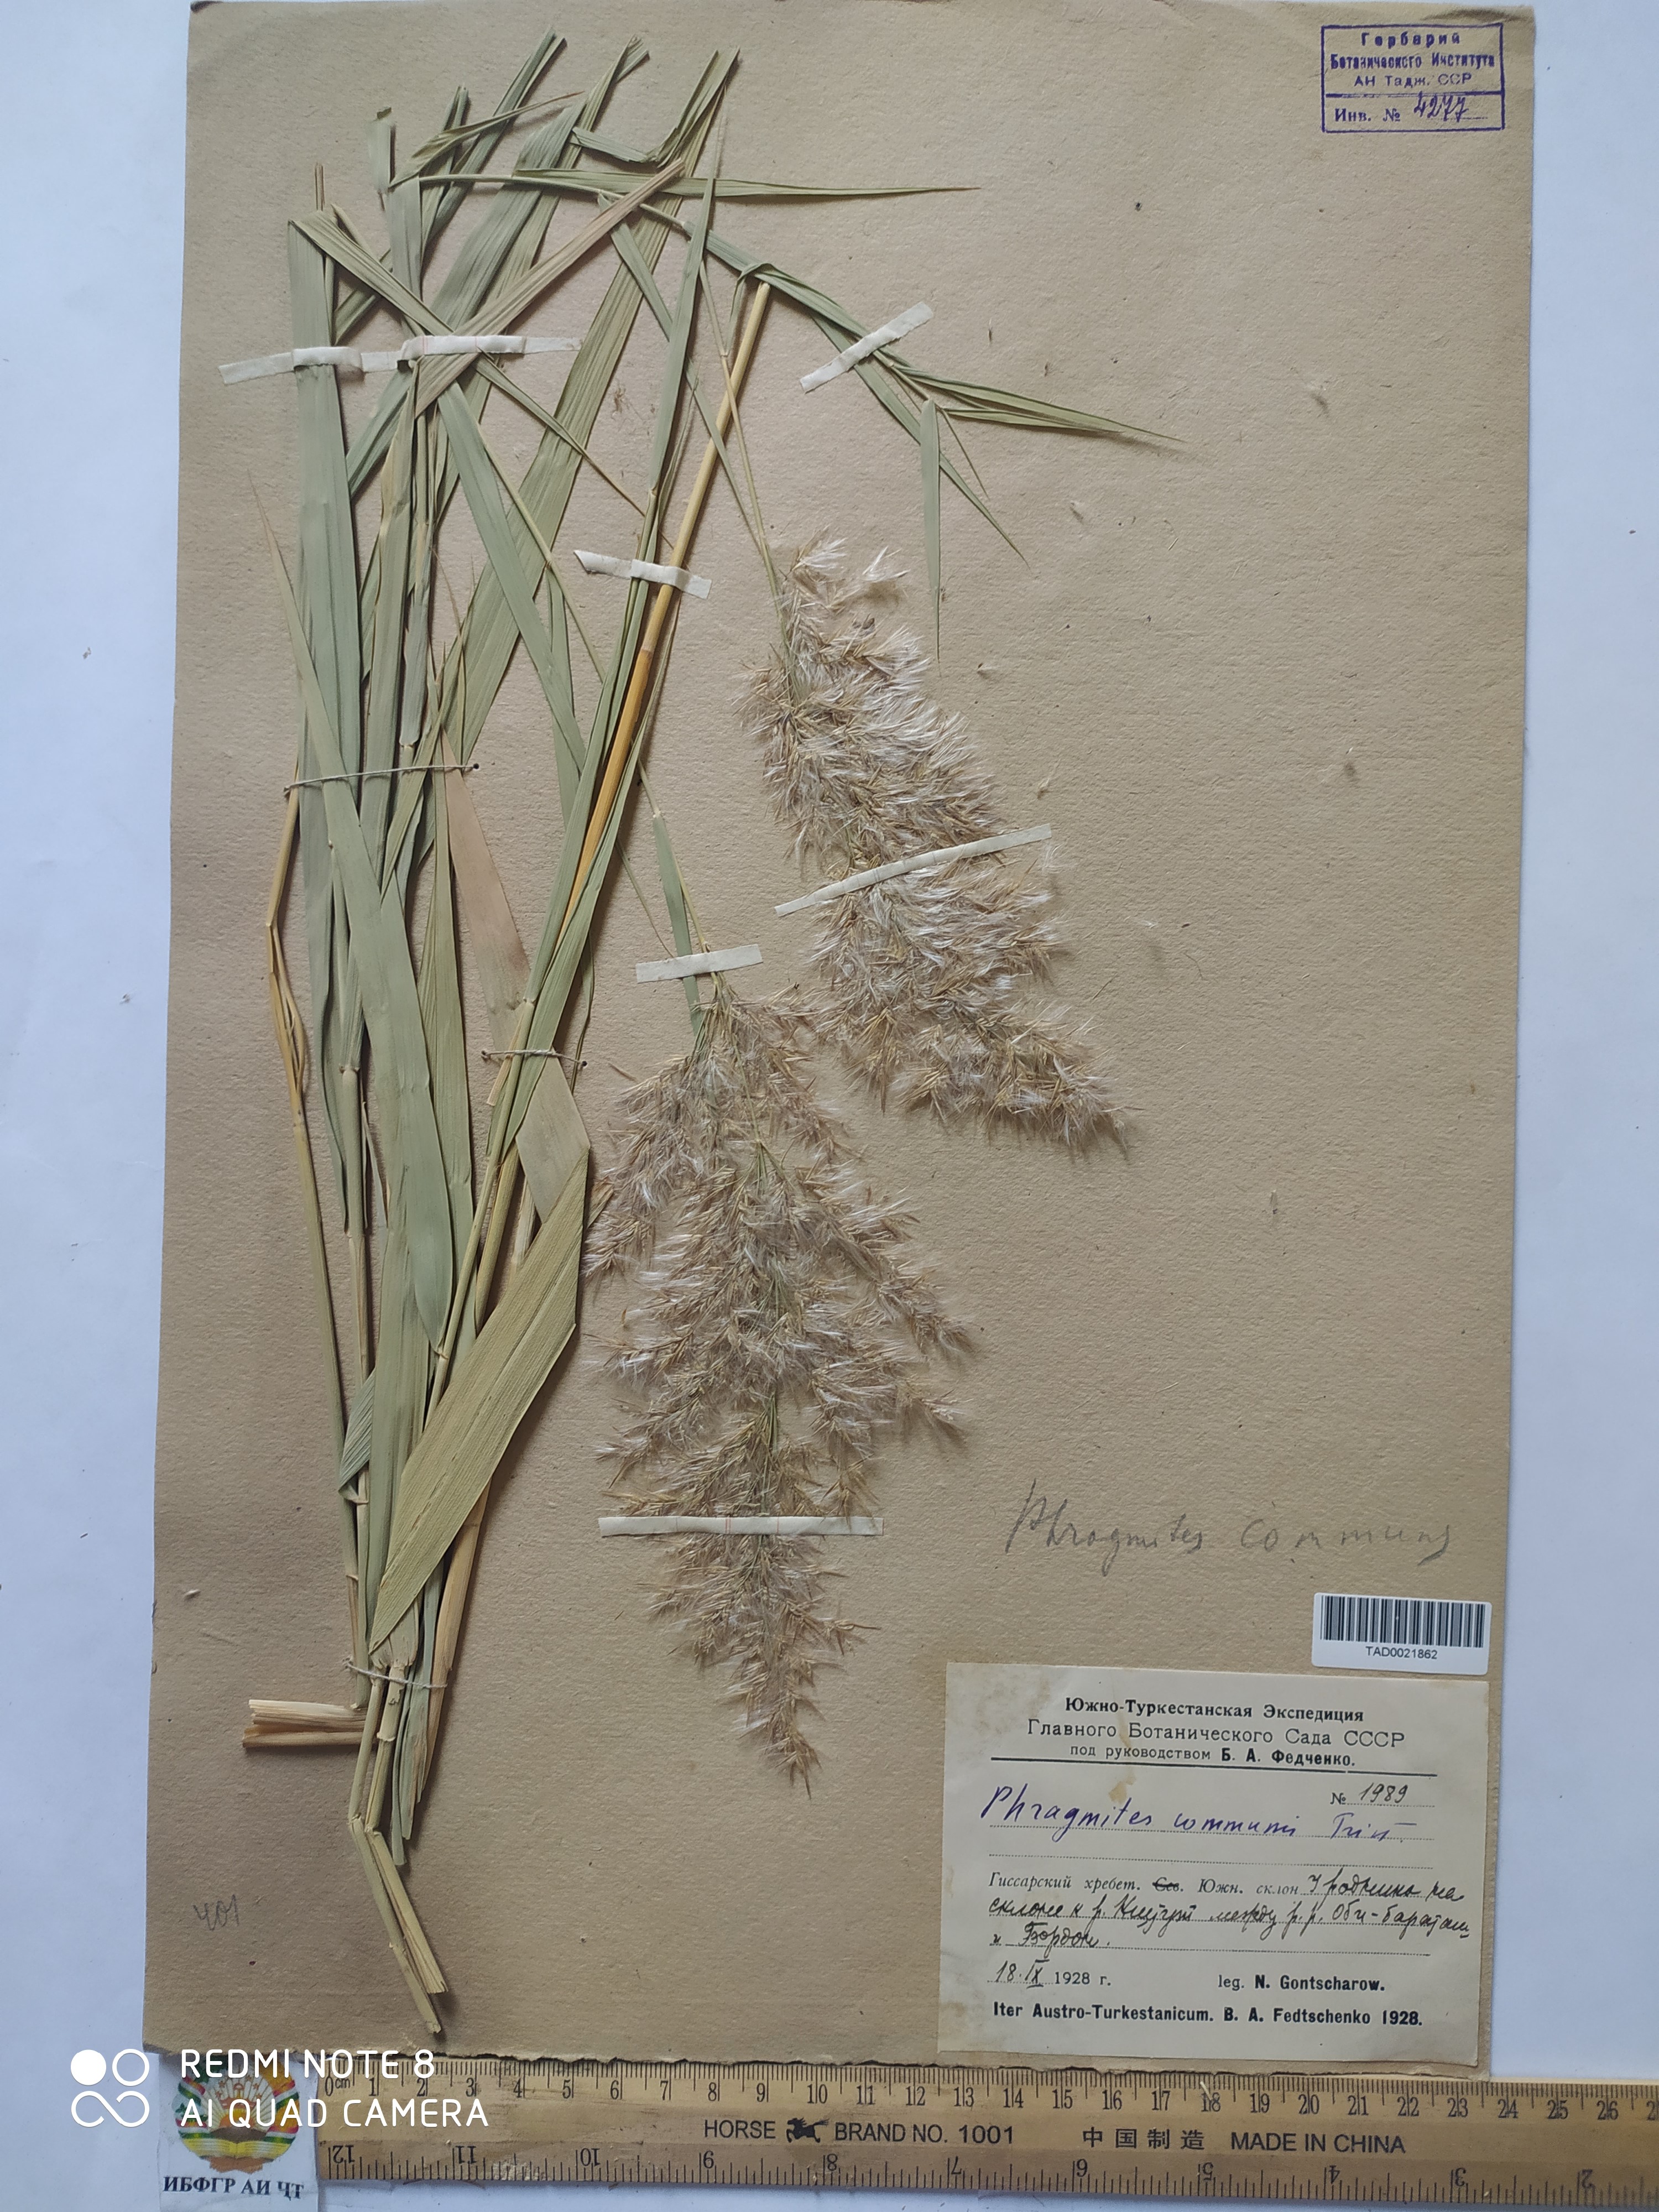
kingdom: Plantae
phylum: Tracheophyta
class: Liliopsida
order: Poales
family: Poaceae
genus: Phragmites
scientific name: Phragmites australis
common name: Common reed
